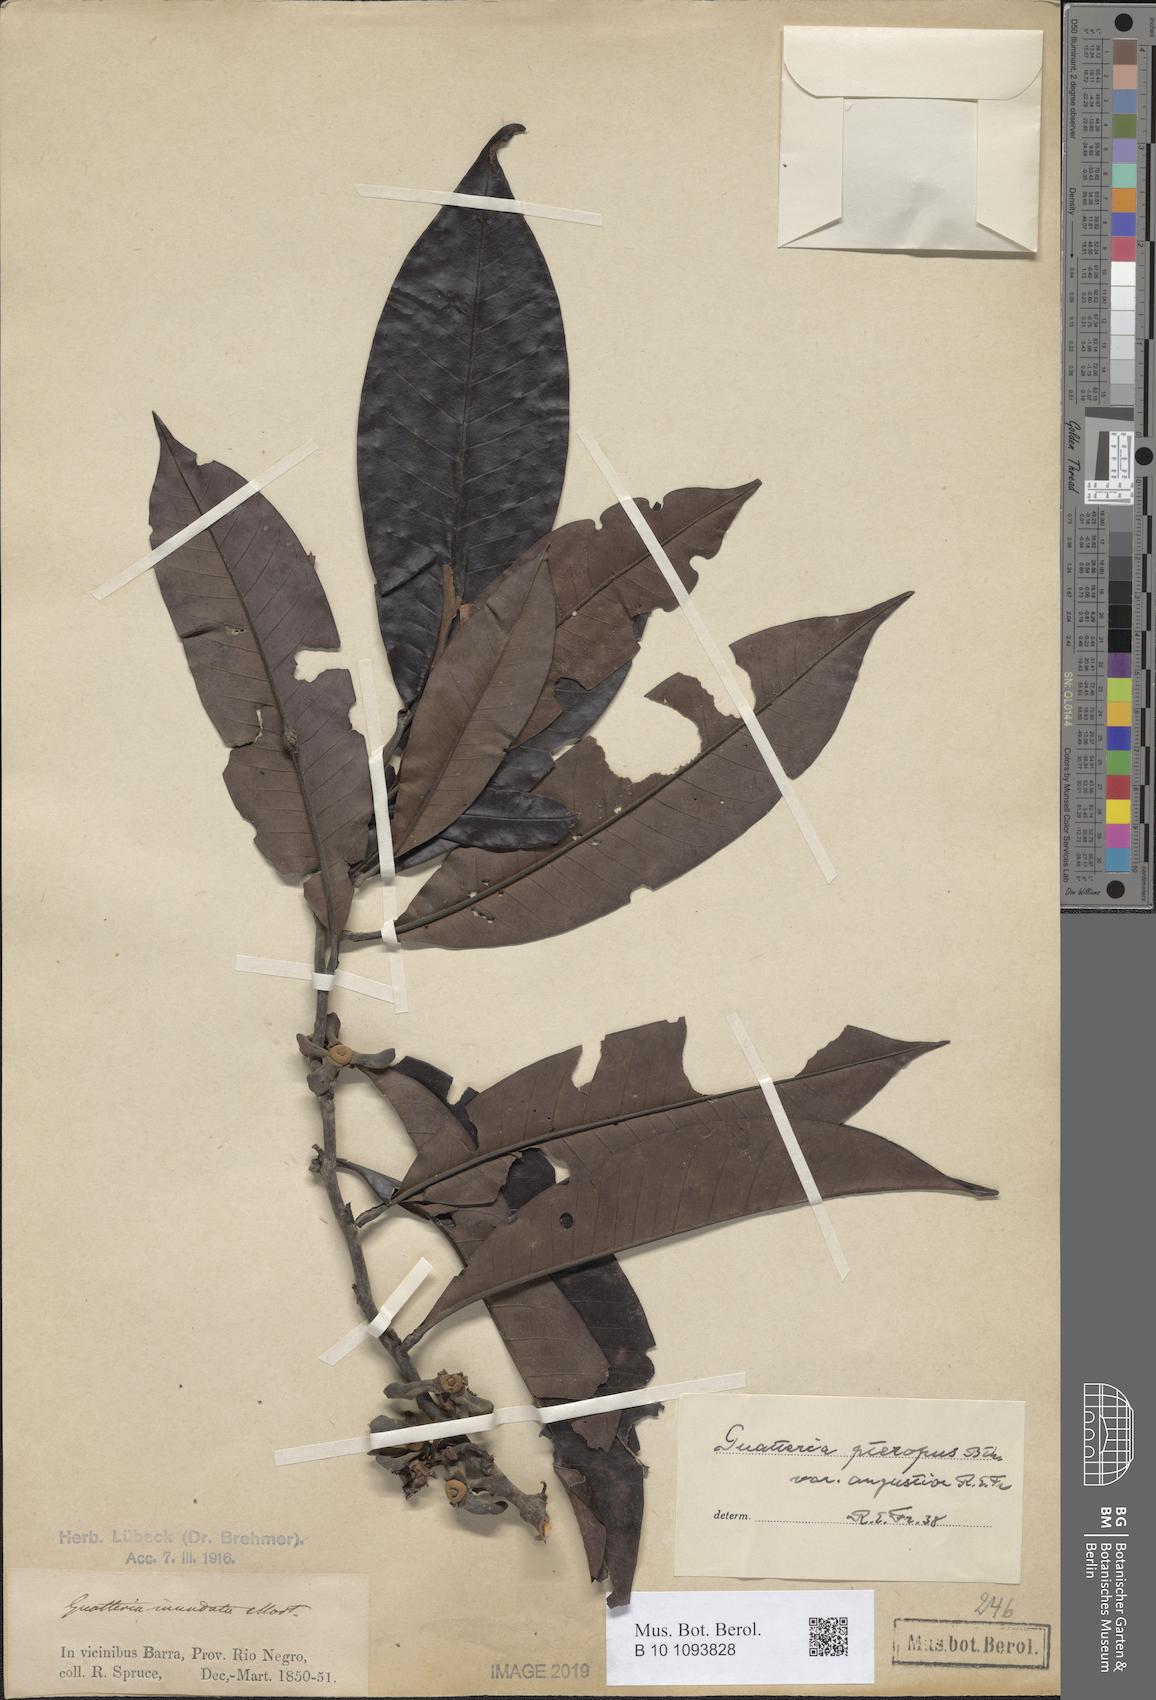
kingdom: Plantae
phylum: Tracheophyta
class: Magnoliopsida
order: Magnoliales
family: Annonaceae
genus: Guatteria
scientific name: Guatteria punctata
